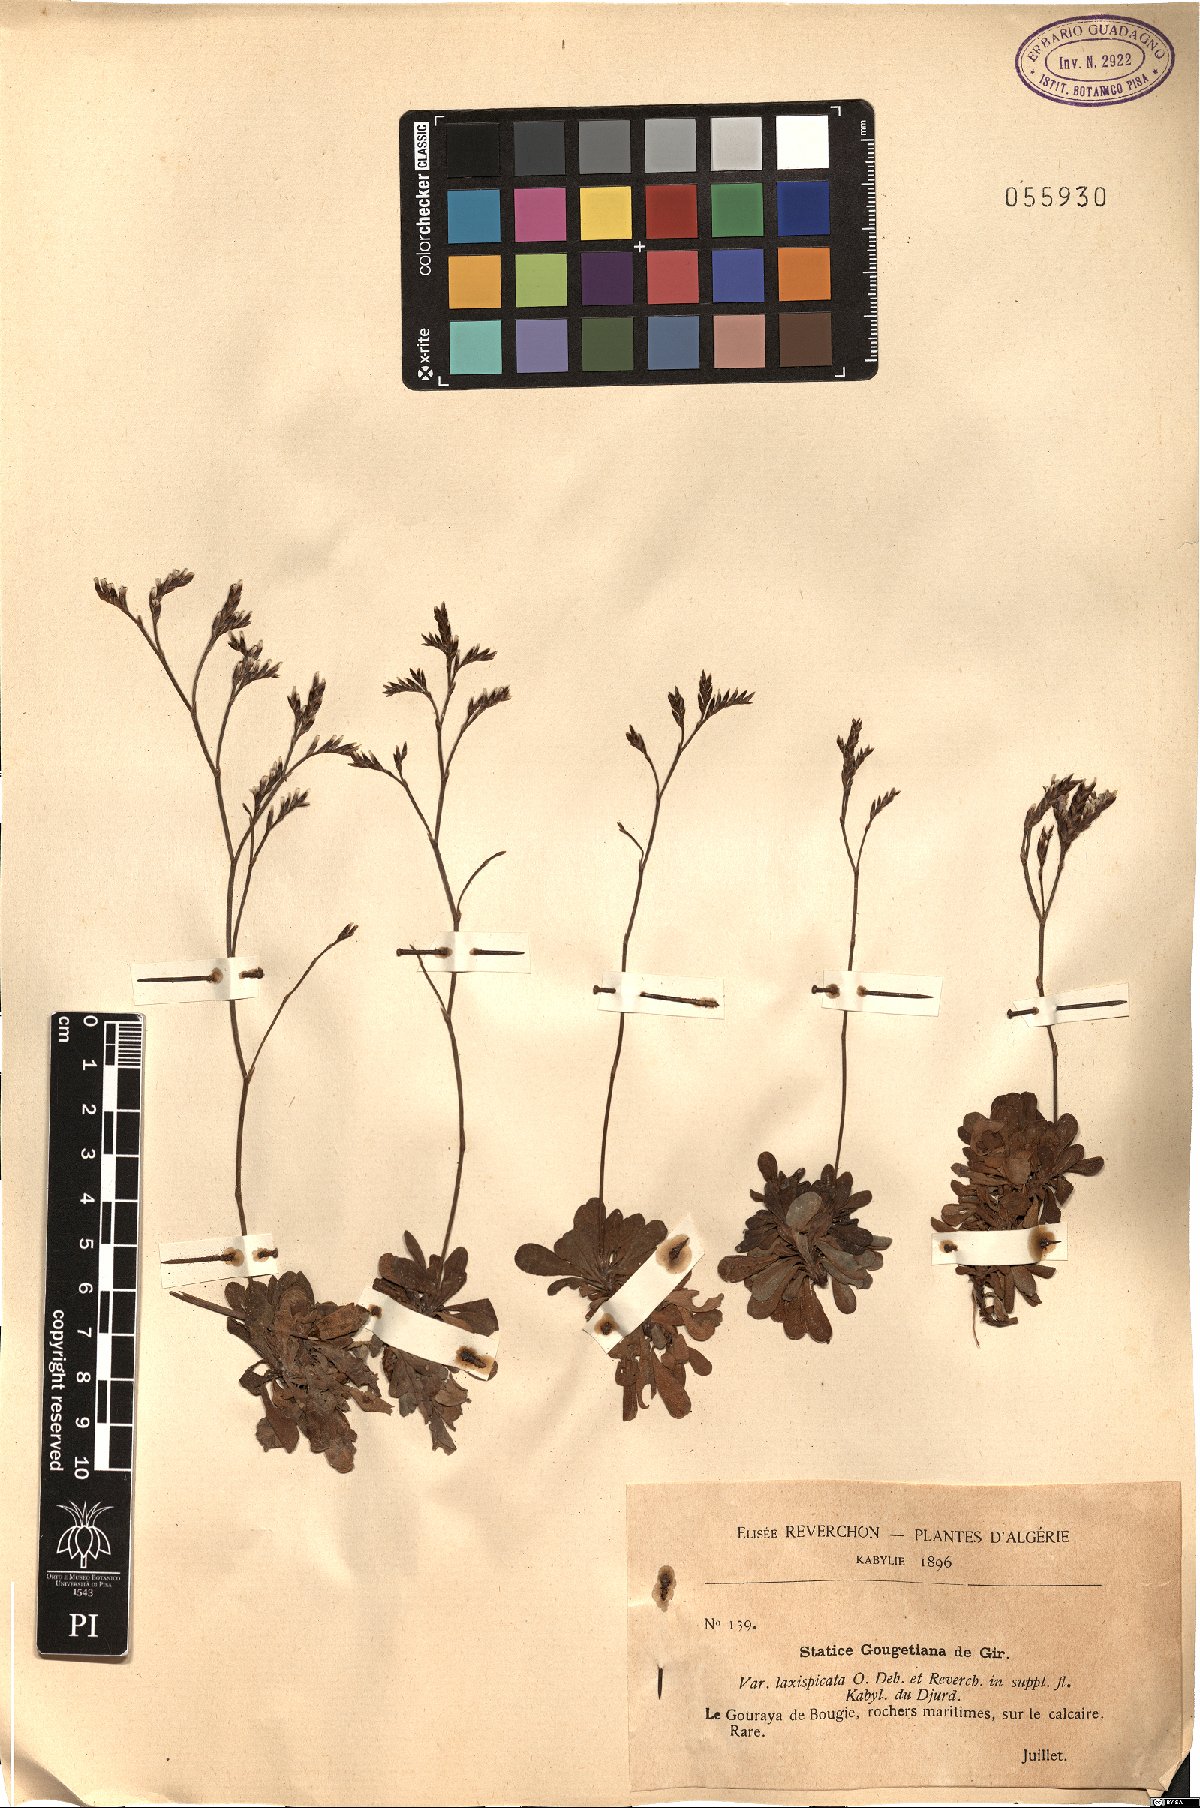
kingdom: Plantae
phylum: Tracheophyta
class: Magnoliopsida
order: Caryophyllales
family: Plumbaginaceae
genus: Limonium
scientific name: Limonium gougetianum
